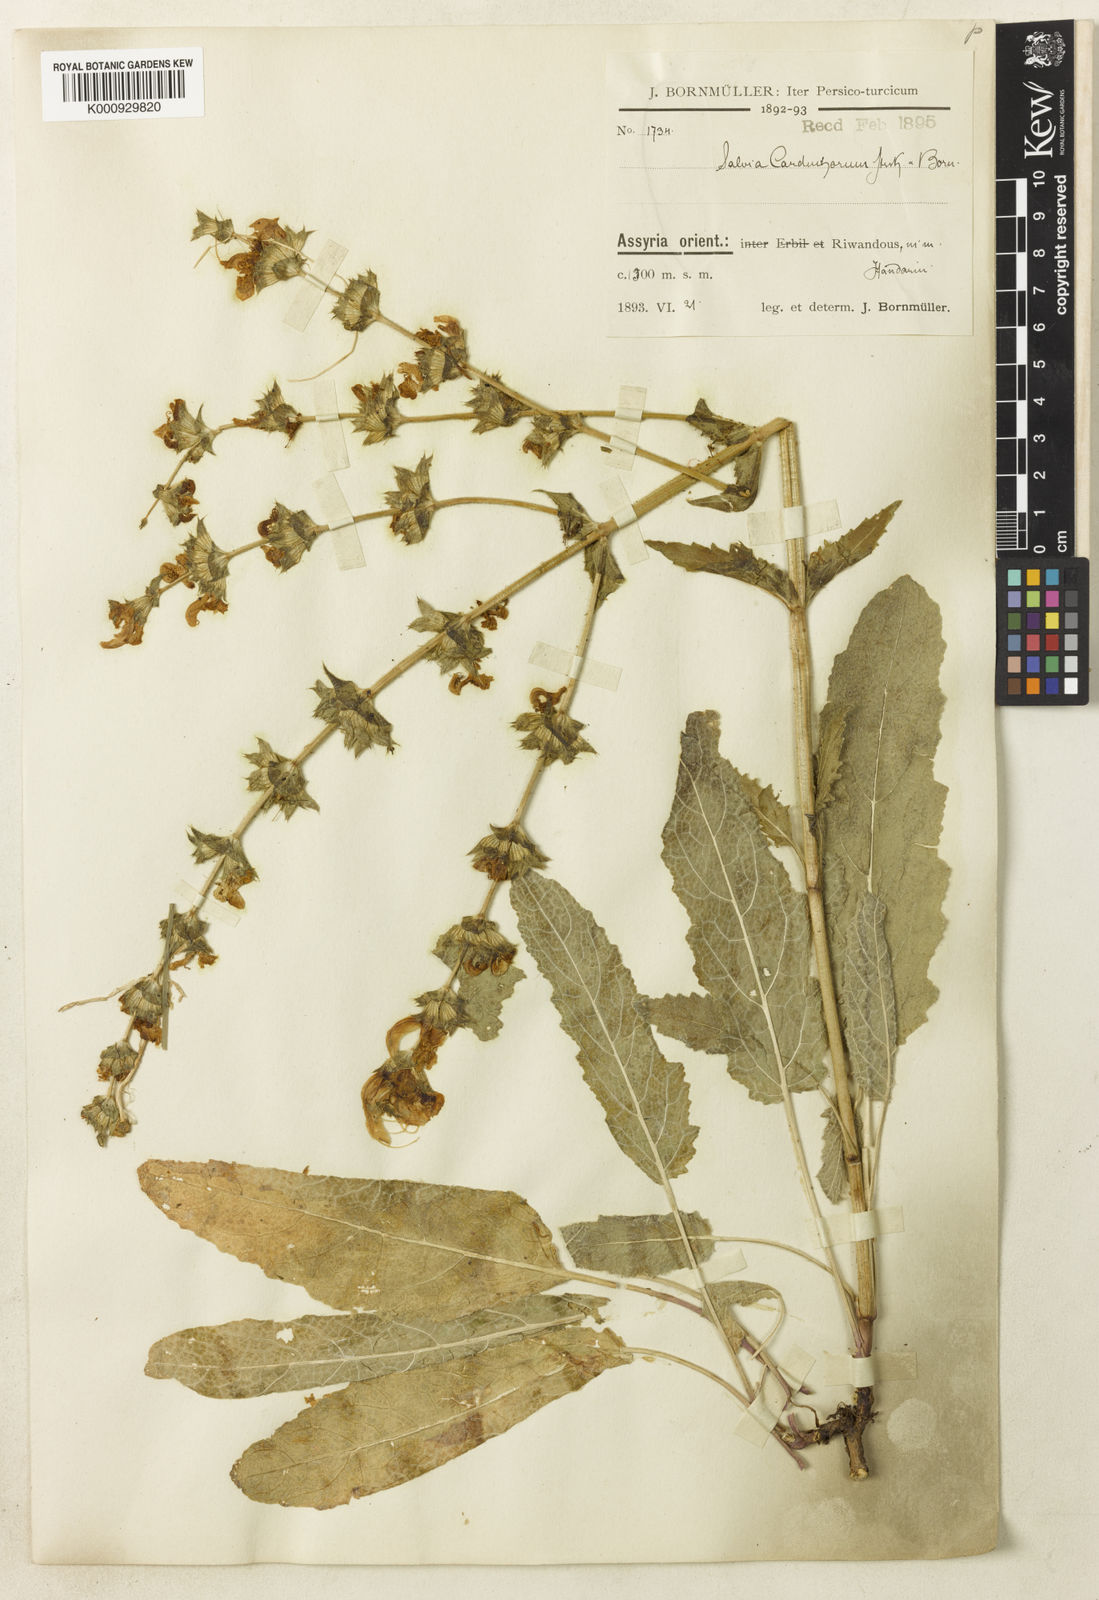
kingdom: Plantae
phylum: Tracheophyta
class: Magnoliopsida
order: Lamiales
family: Lamiaceae
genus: Salvia
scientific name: Salvia atropatana
